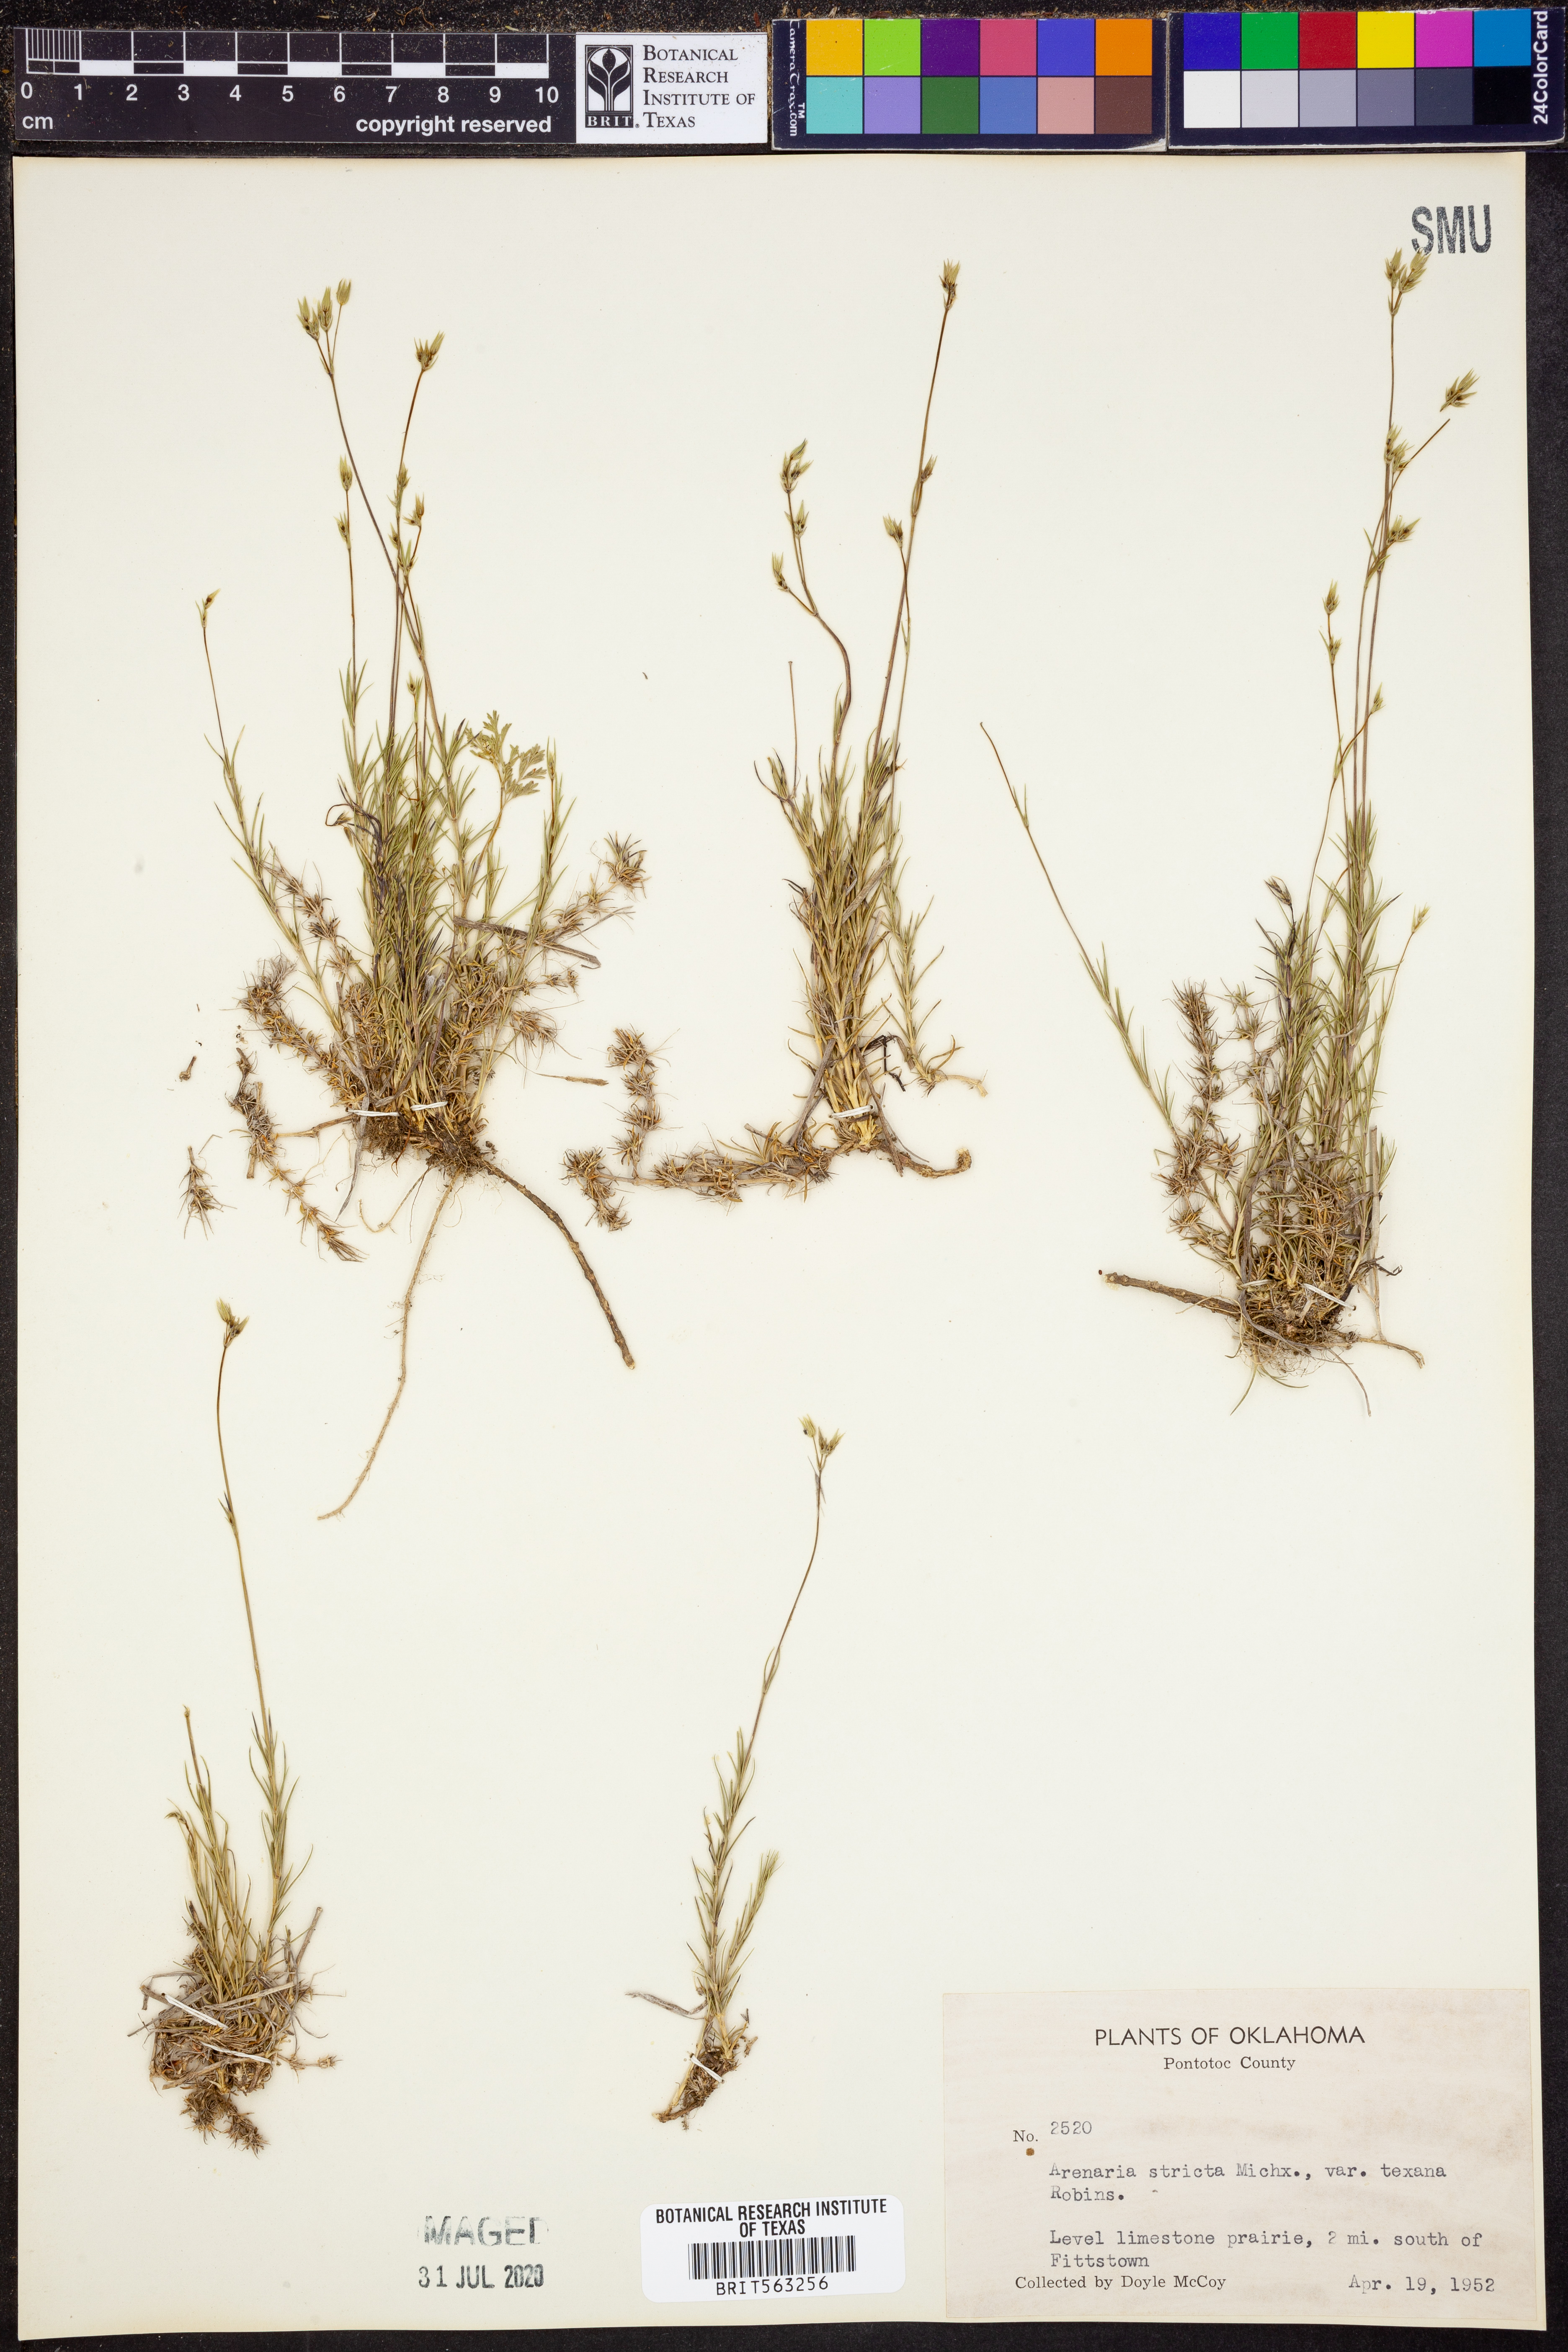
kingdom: Plantae
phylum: Tracheophyta
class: Magnoliopsida
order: Caryophyllales
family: Caryophyllaceae
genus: Sabulina
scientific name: Sabulina michauxii
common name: Michaux's stitchwort
